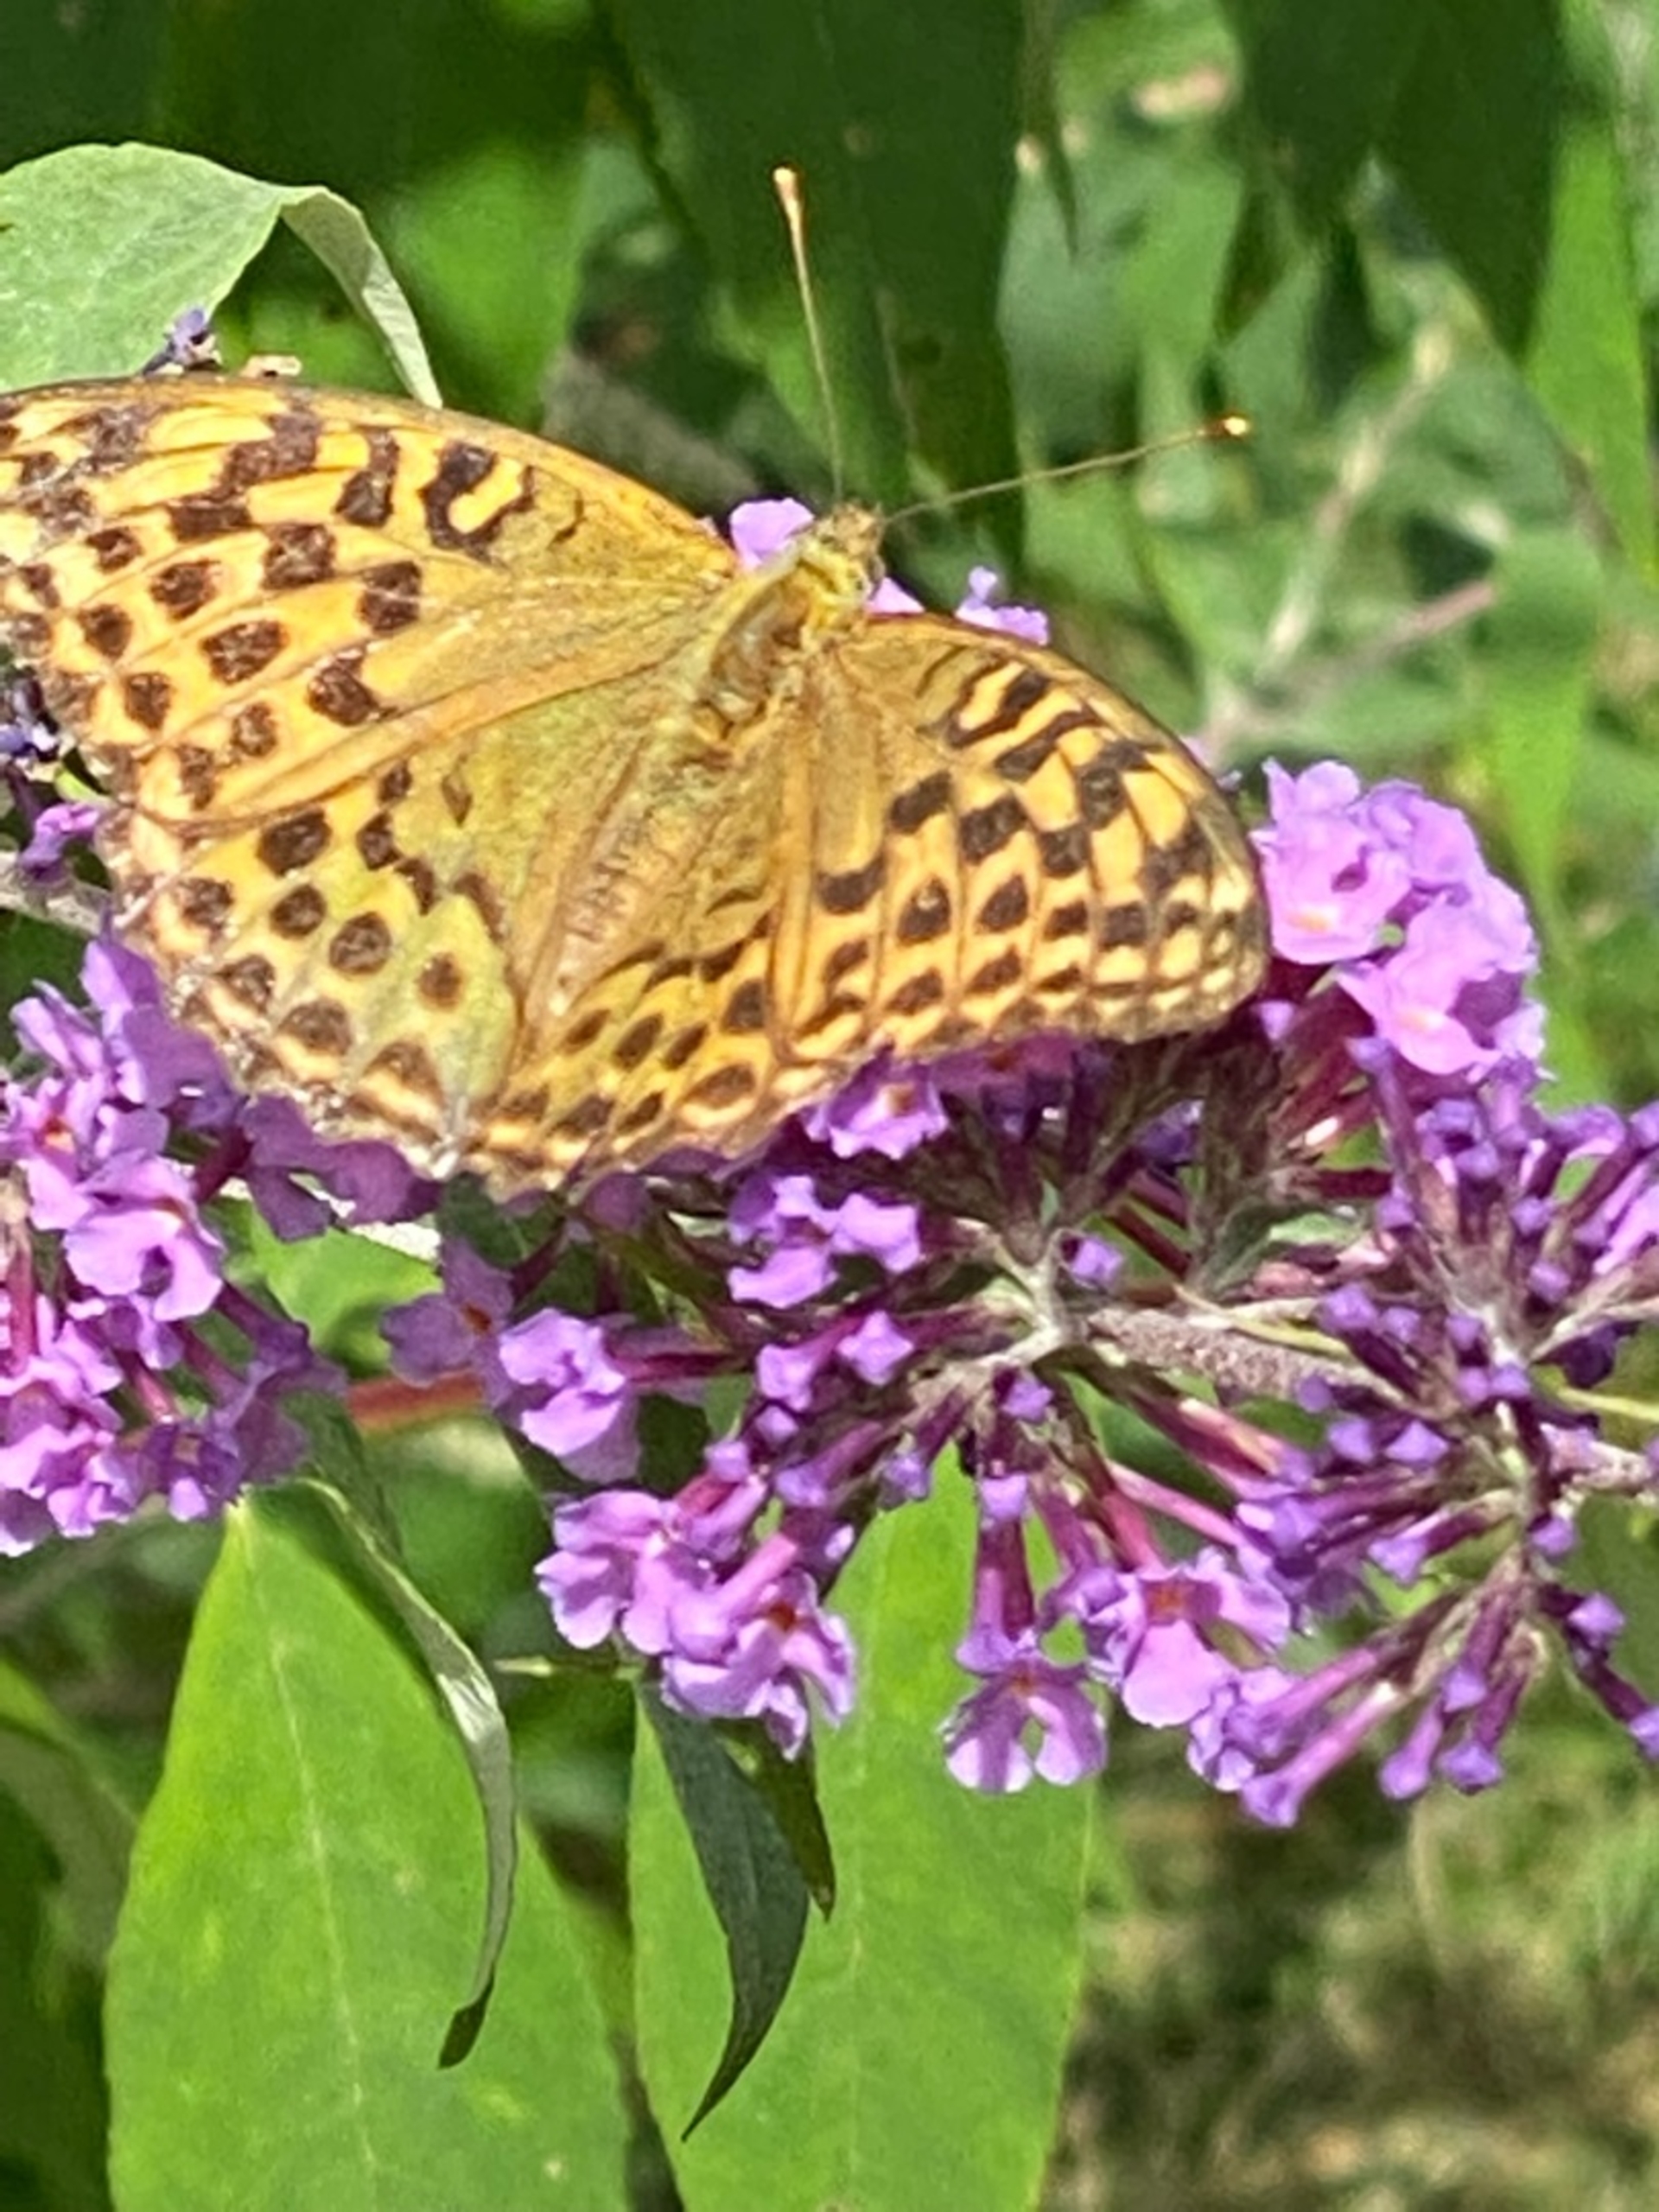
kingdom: Animalia
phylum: Arthropoda
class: Insecta
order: Lepidoptera
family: Nymphalidae
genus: Argynnis
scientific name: Argynnis paphia
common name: Kejserkåbe
